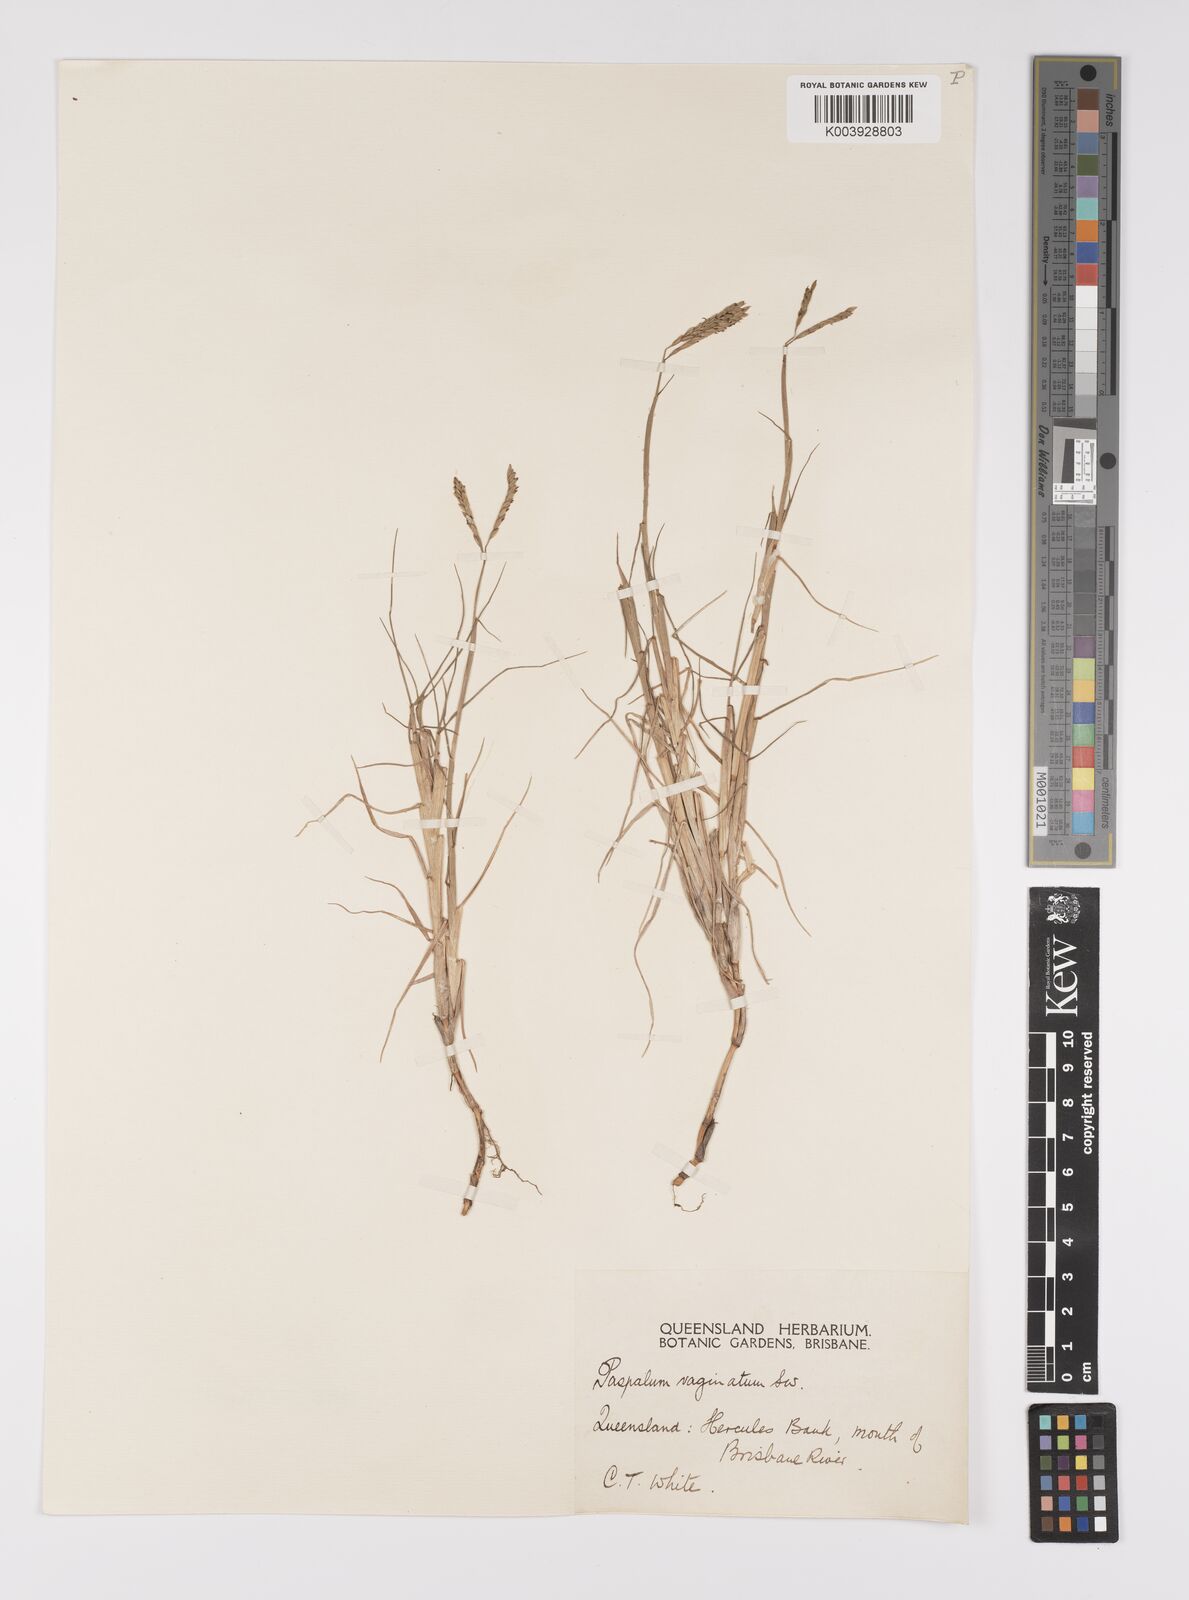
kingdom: Plantae
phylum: Tracheophyta
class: Liliopsida
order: Poales
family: Poaceae
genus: Paspalum
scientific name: Paspalum vaginatum
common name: Seashore paspalum
